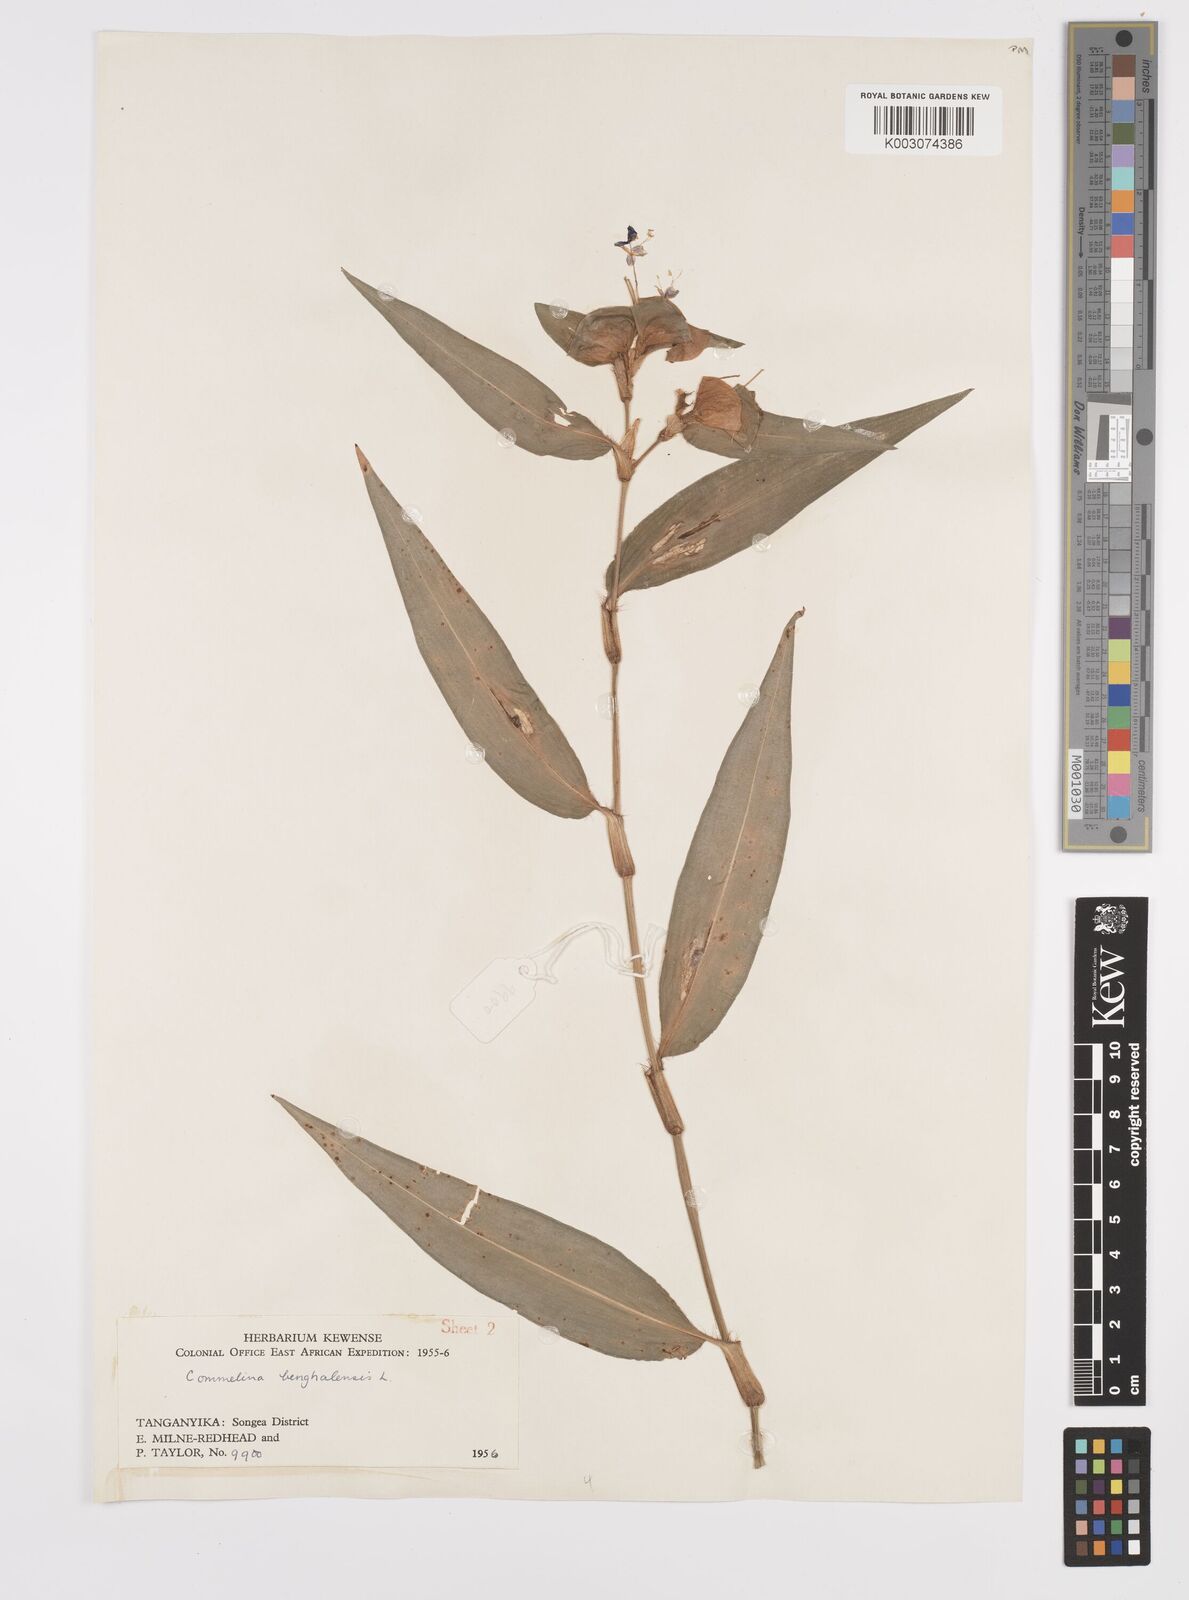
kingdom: Plantae
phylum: Tracheophyta
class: Liliopsida
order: Commelinales
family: Commelinaceae
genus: Commelina
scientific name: Commelina benghalensis
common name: Jio
